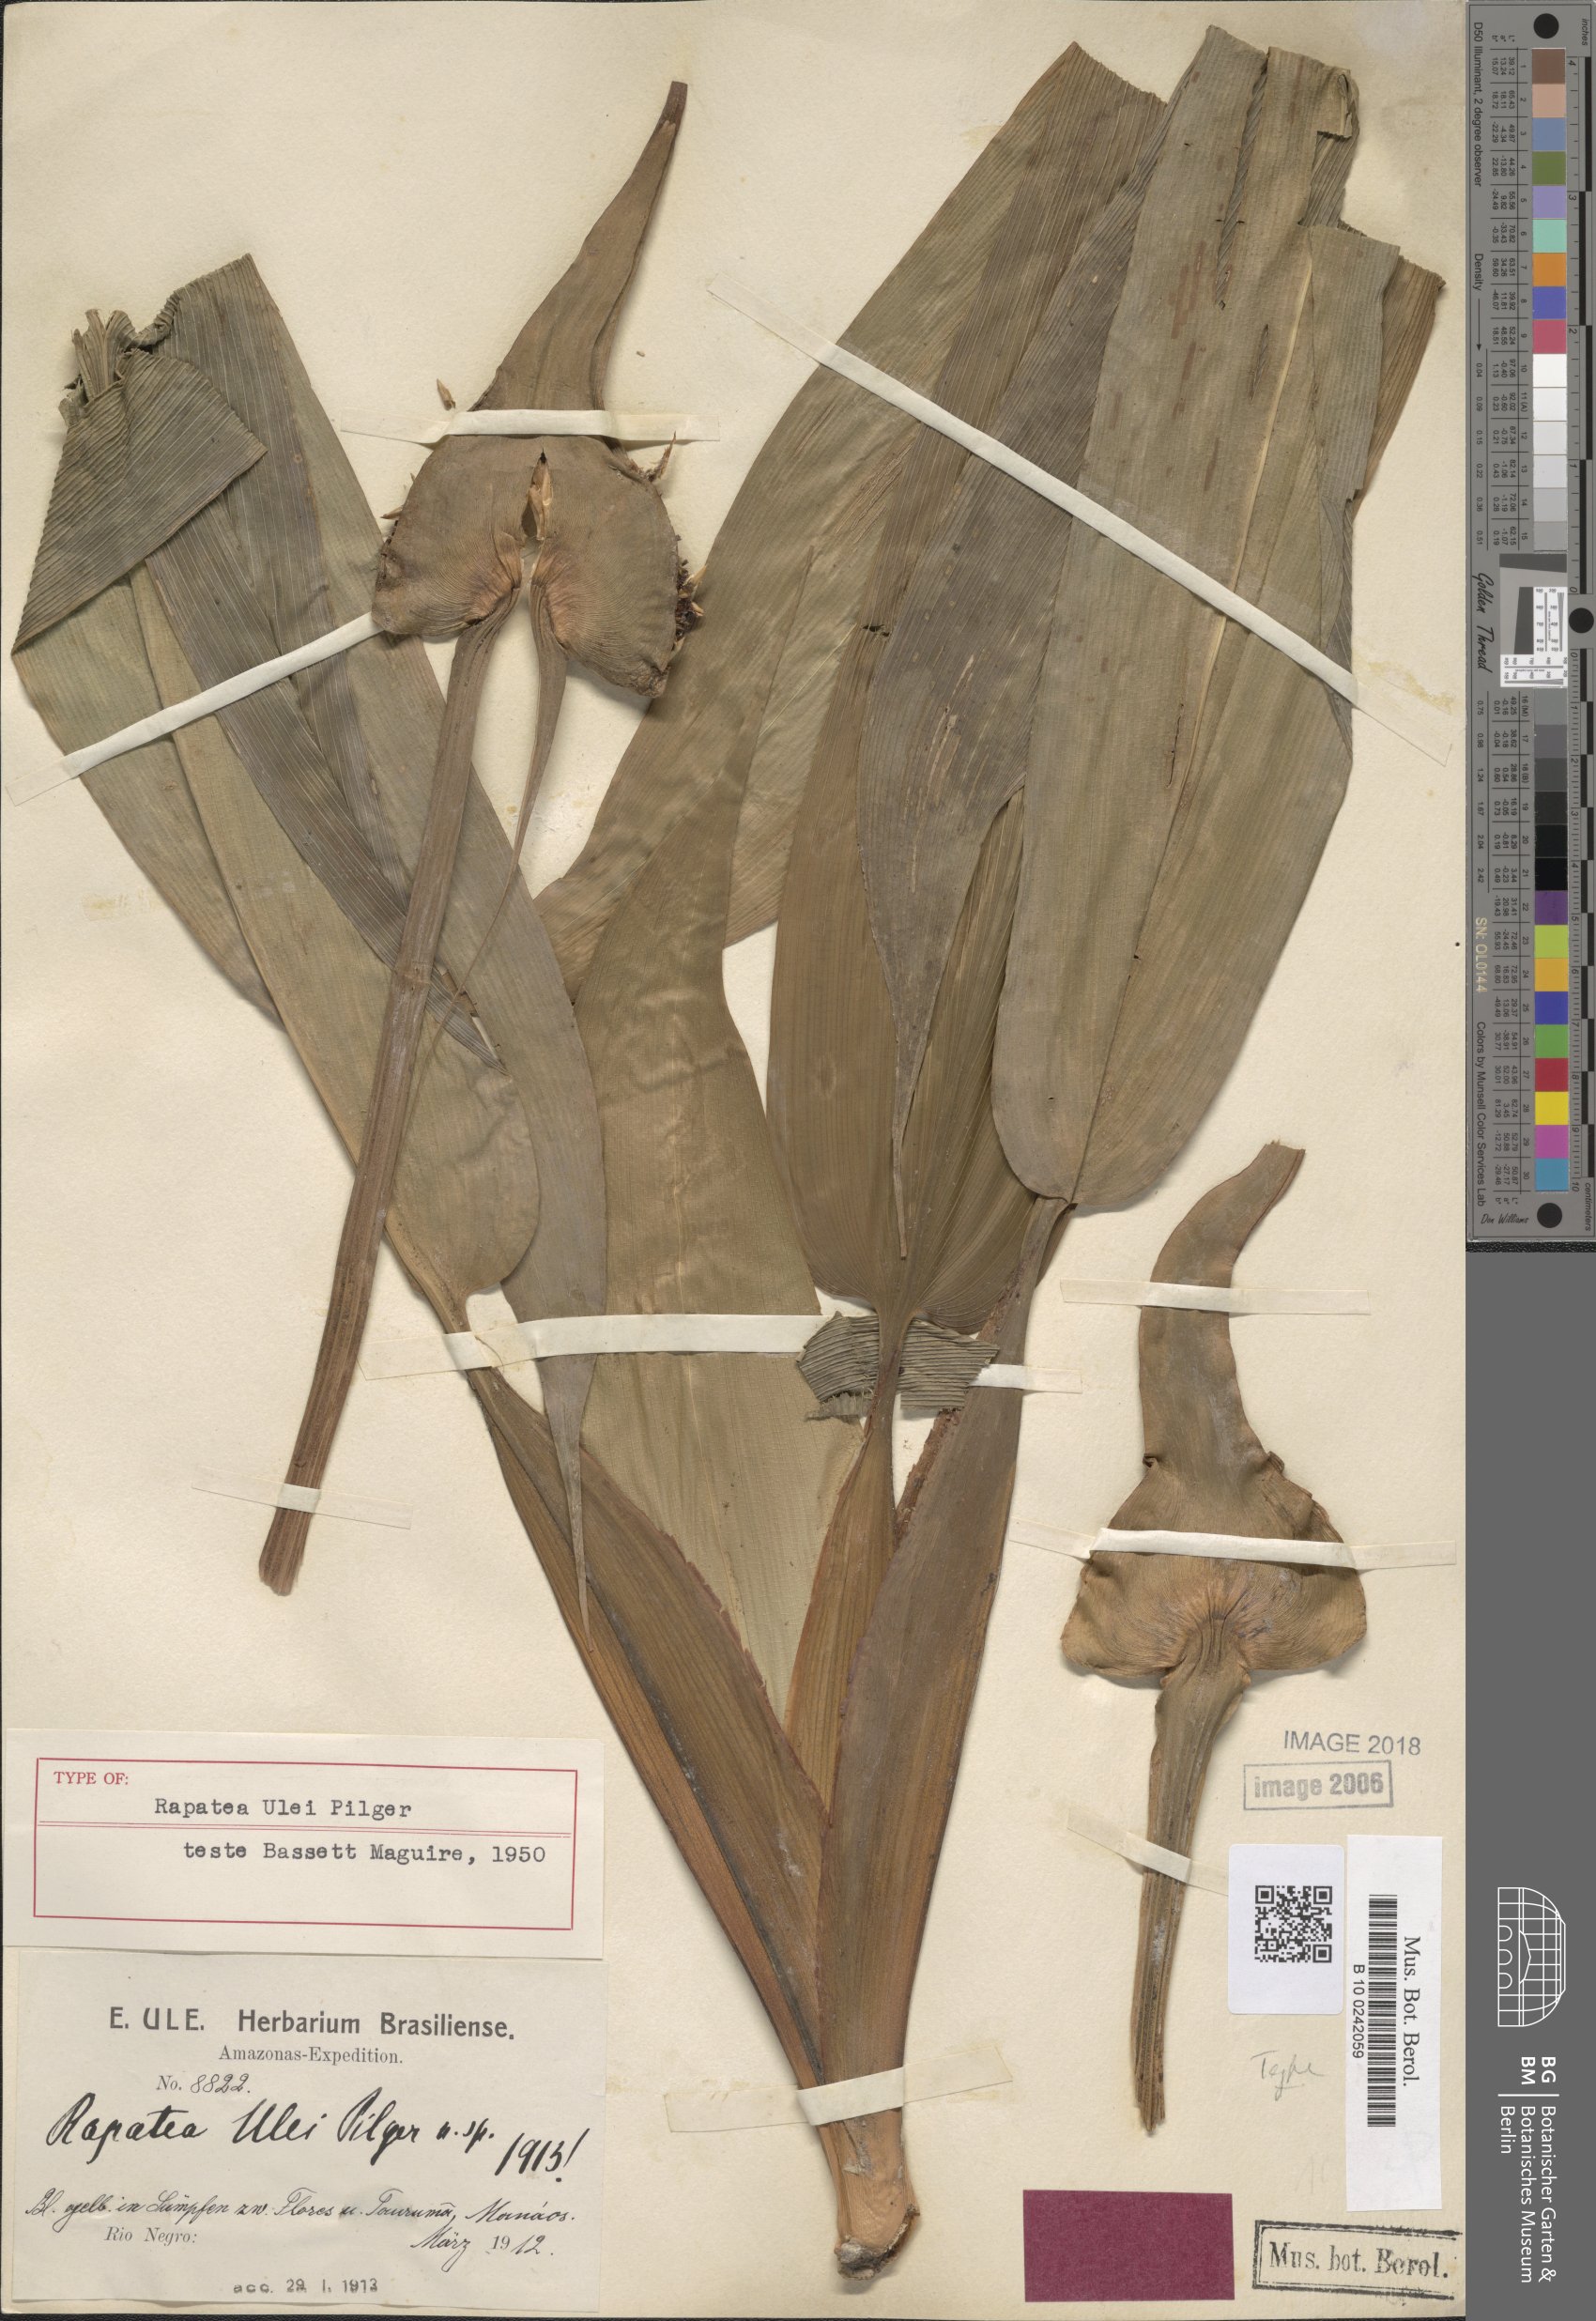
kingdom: Plantae
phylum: Tracheophyta
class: Liliopsida
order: Poales
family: Rapateaceae
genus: Rapatea
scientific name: Rapatea ulei
